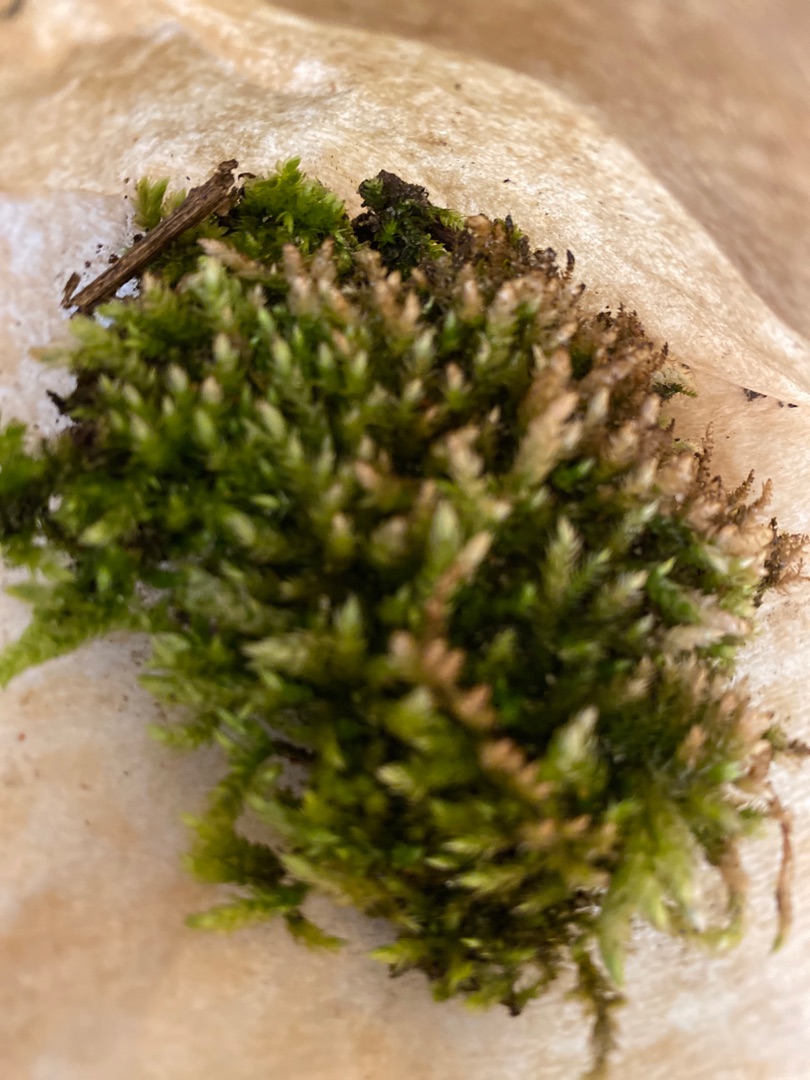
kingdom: Plantae
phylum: Bryophyta
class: Bryopsida
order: Hypnales
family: Brachytheciaceae
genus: Brachythecium
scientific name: Brachythecium rutabulum
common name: Almindelig kortkapsel
